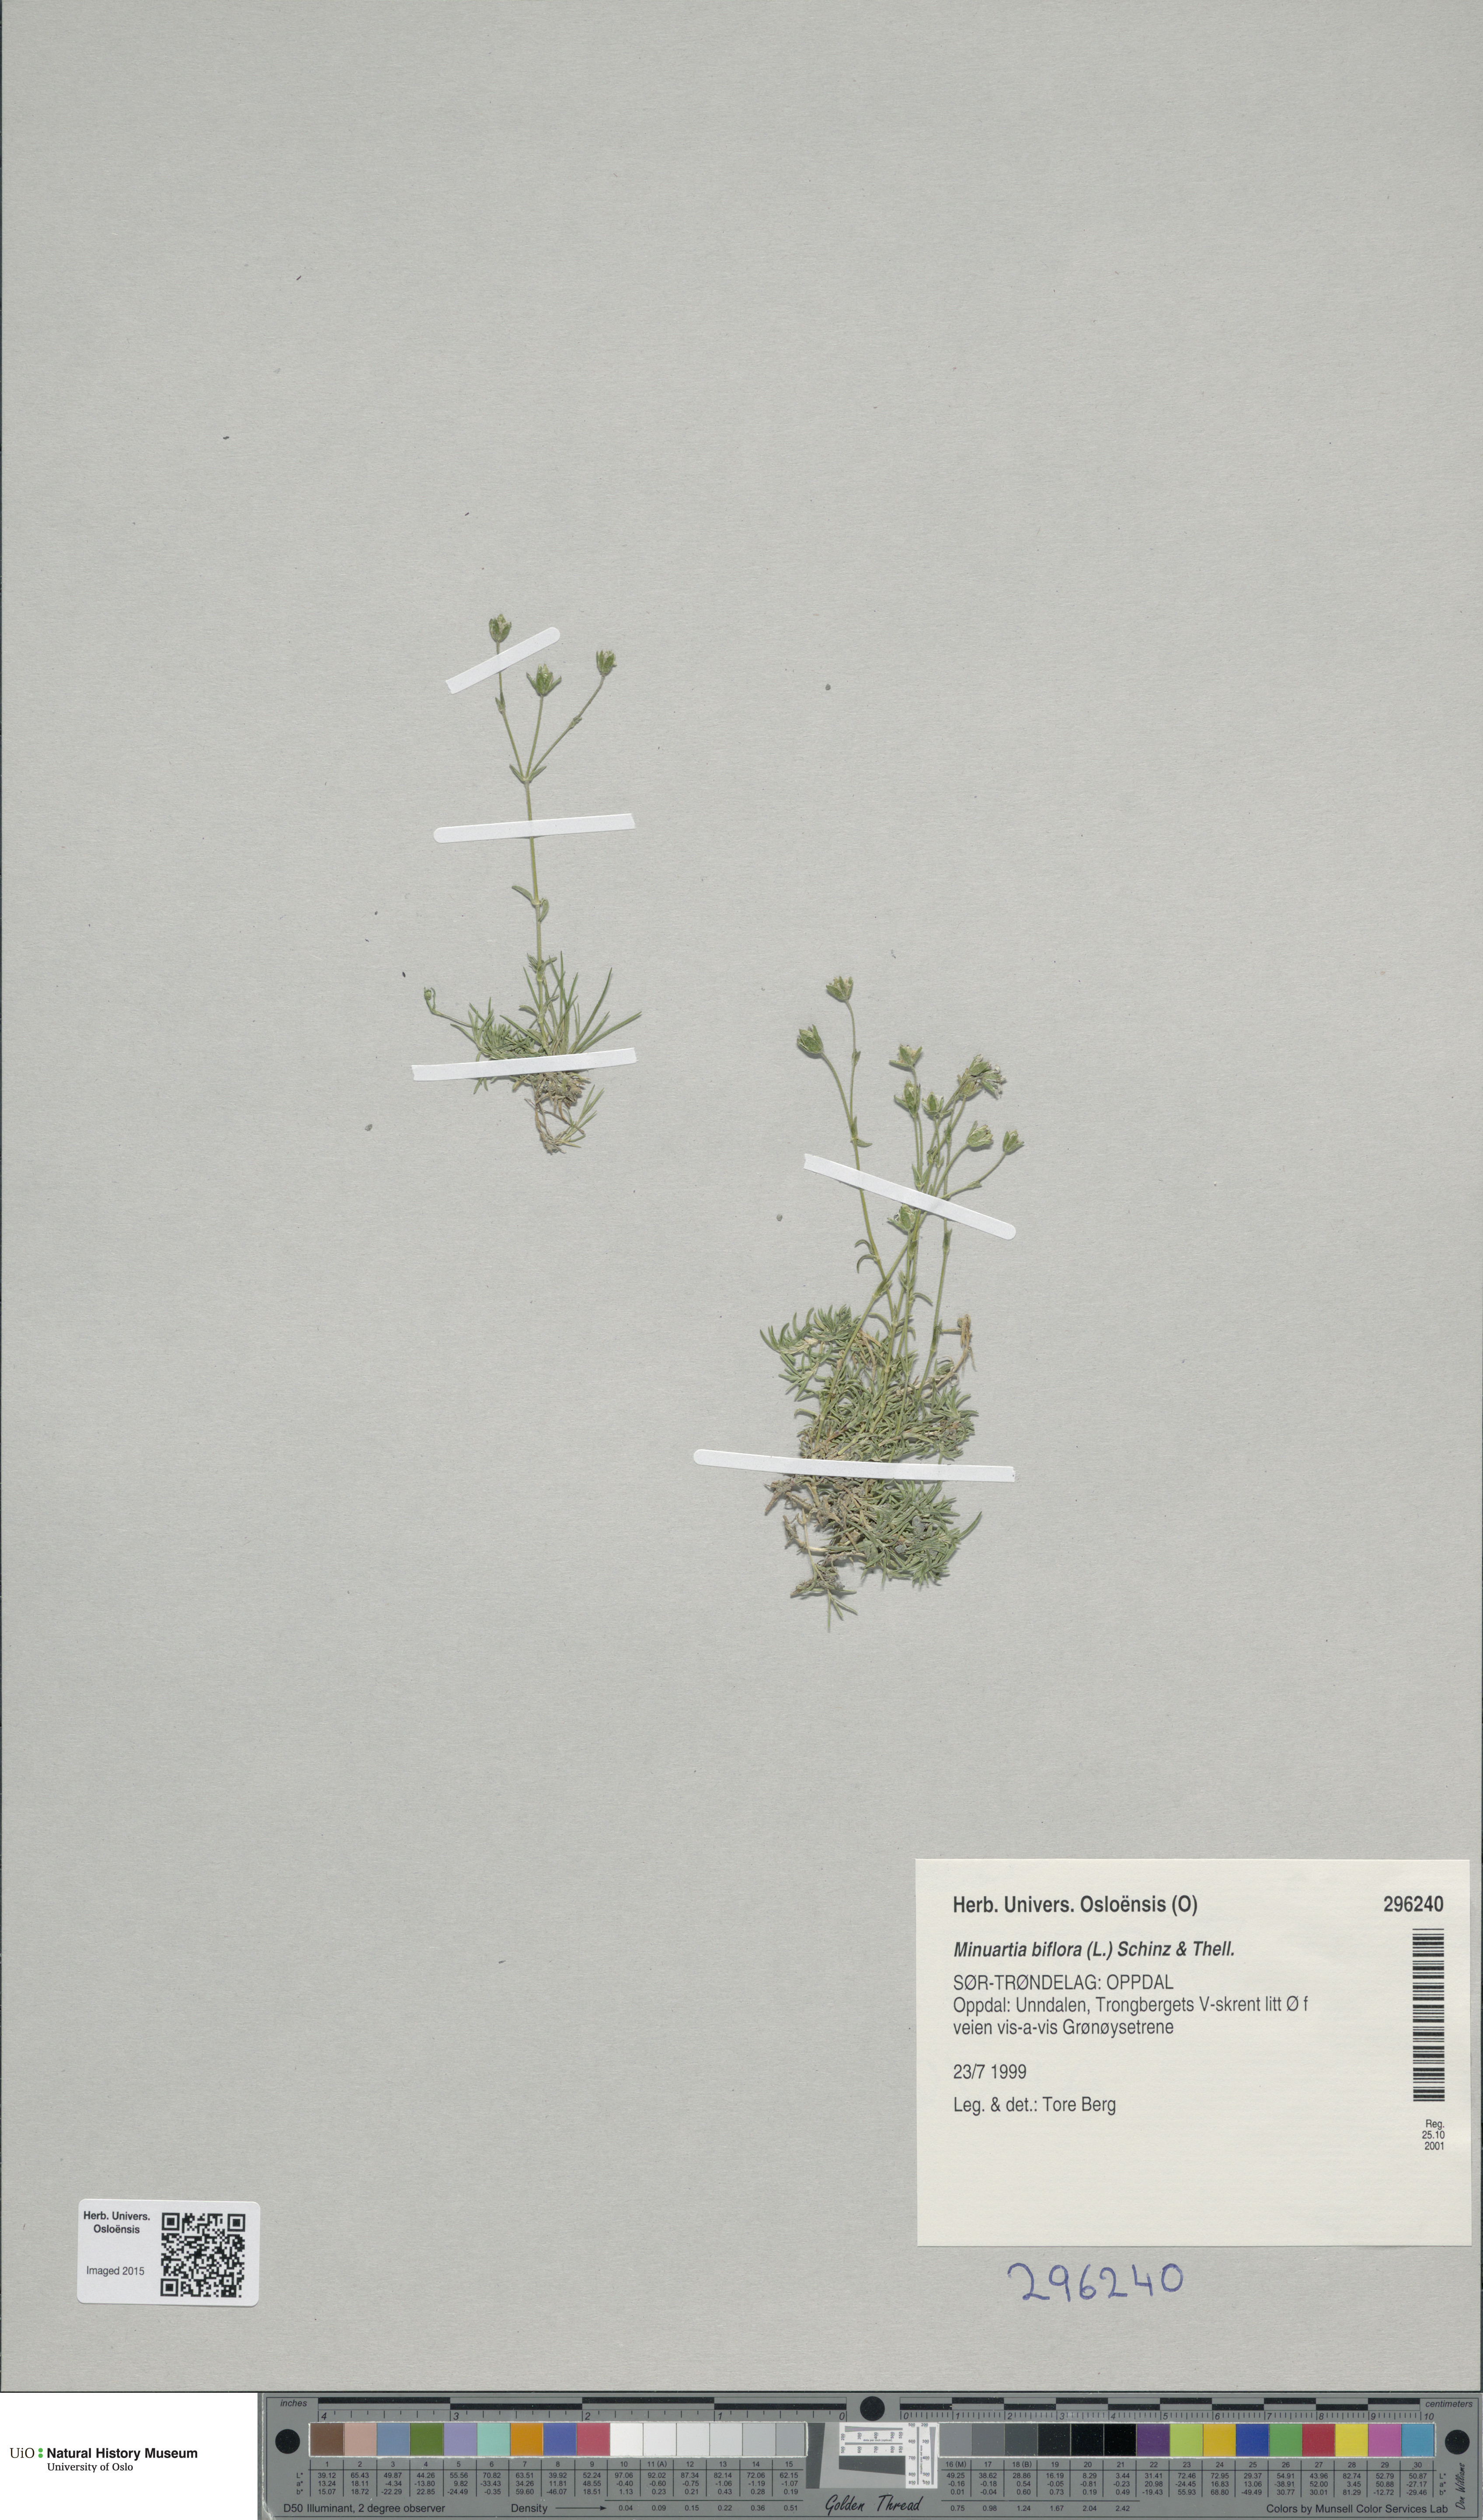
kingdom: Plantae
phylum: Tracheophyta
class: Magnoliopsida
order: Caryophyllales
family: Caryophyllaceae
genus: Cherleria
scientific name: Cherleria biflora
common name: Mountain sandwort
